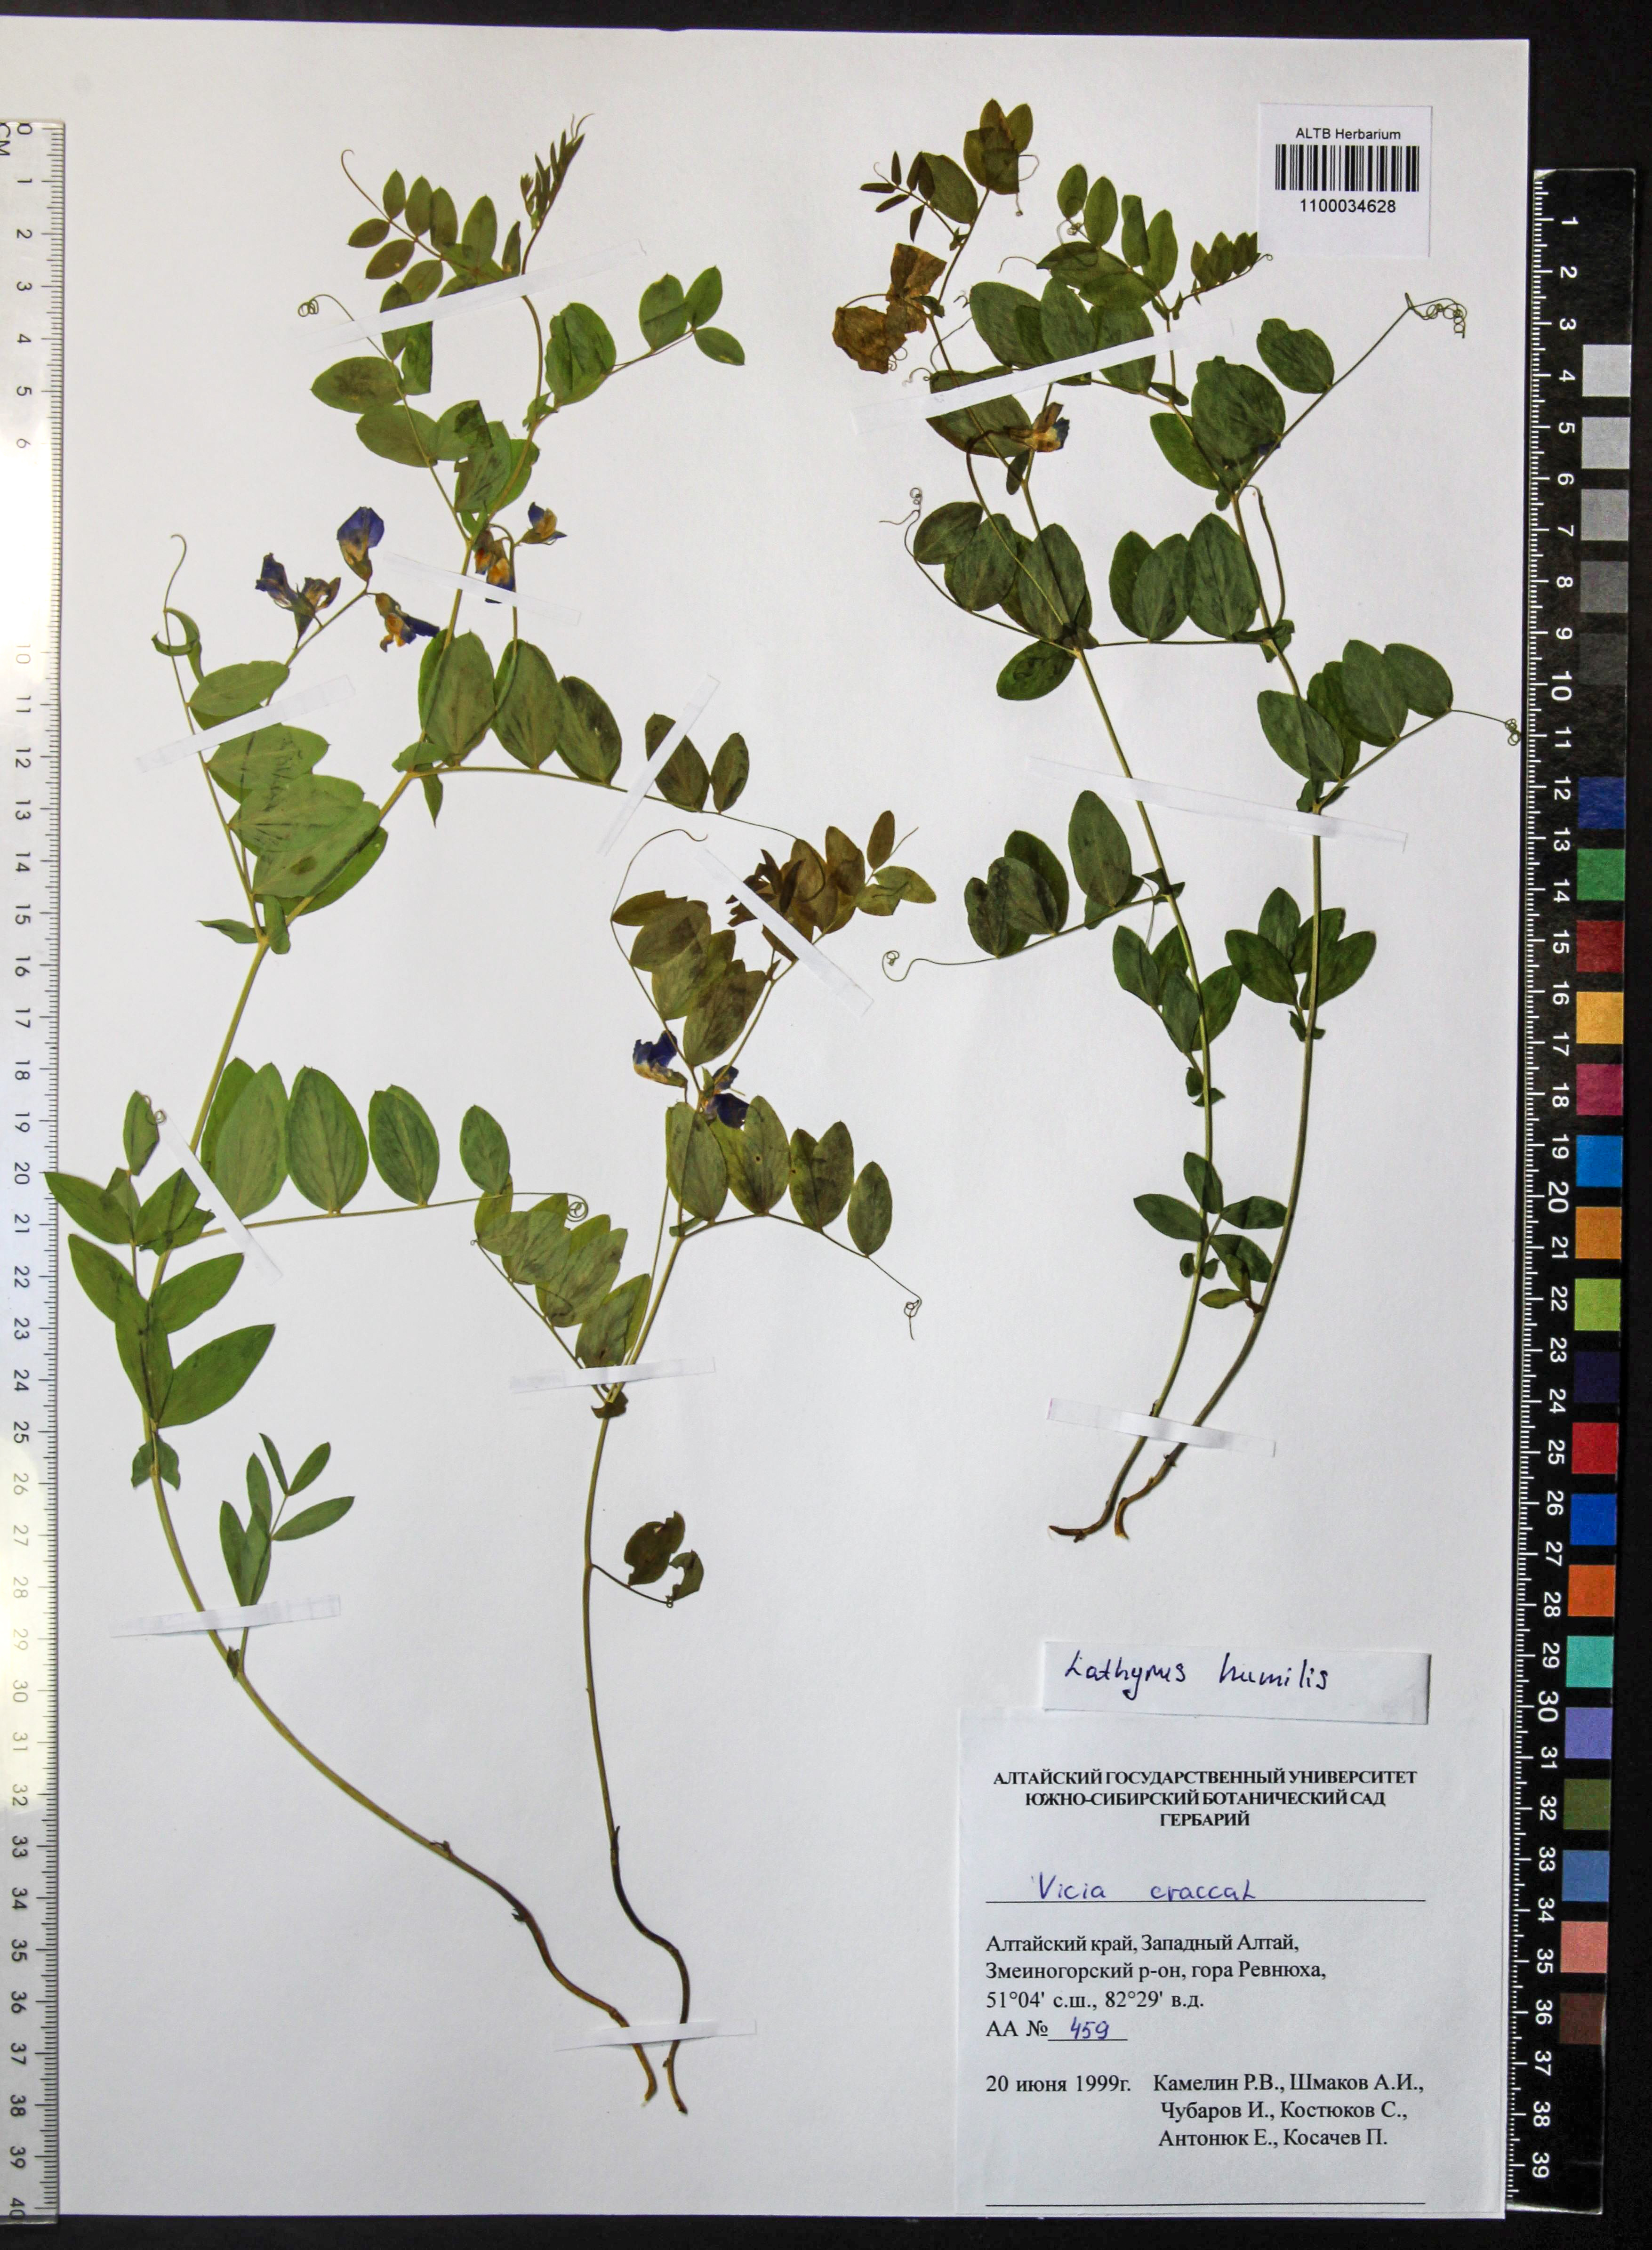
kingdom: Plantae
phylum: Tracheophyta
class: Magnoliopsida
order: Fabales
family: Fabaceae
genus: Lathyrus
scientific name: Lathyrus humilis
